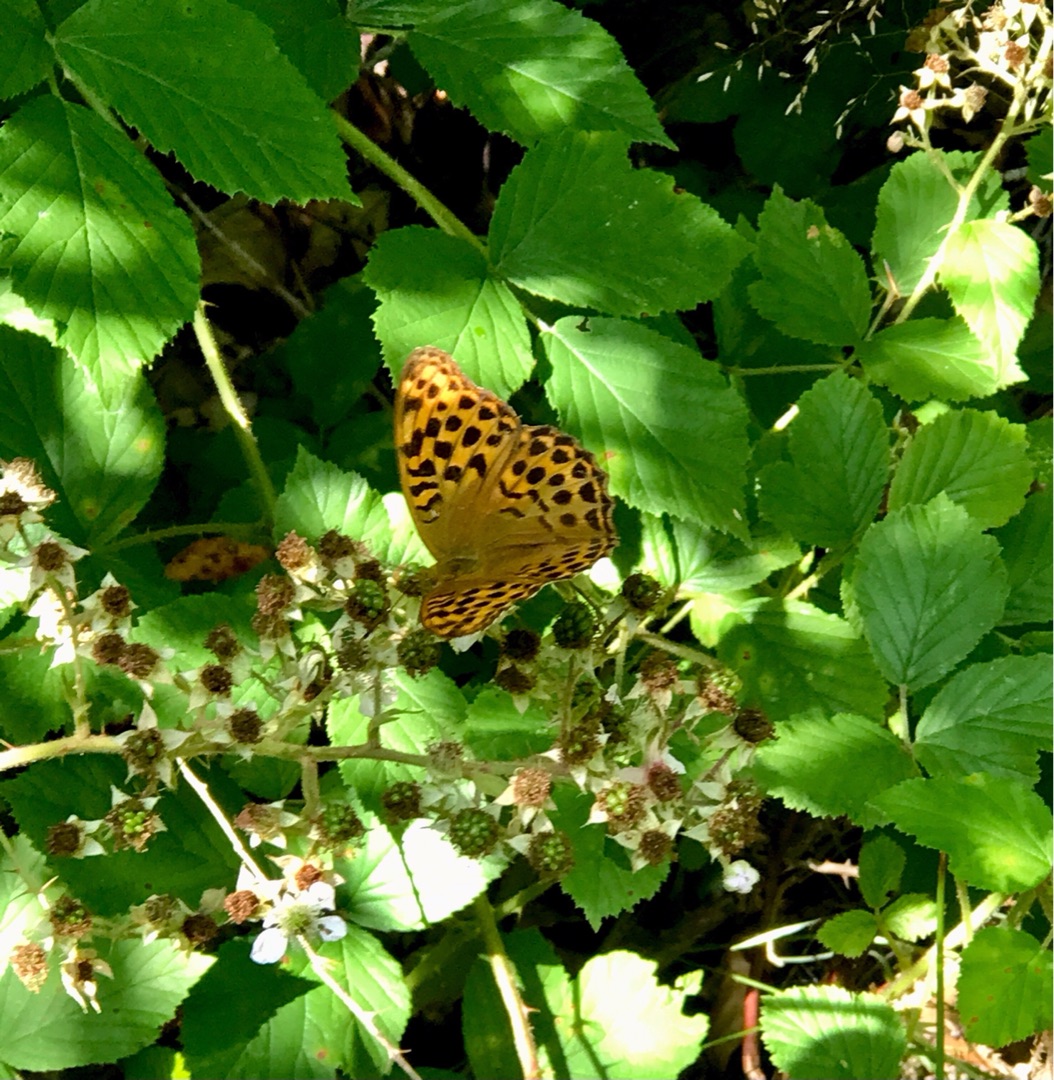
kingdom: Animalia
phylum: Arthropoda
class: Insecta
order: Lepidoptera
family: Nymphalidae
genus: Argynnis
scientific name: Argynnis paphia
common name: Kejserkåbe
